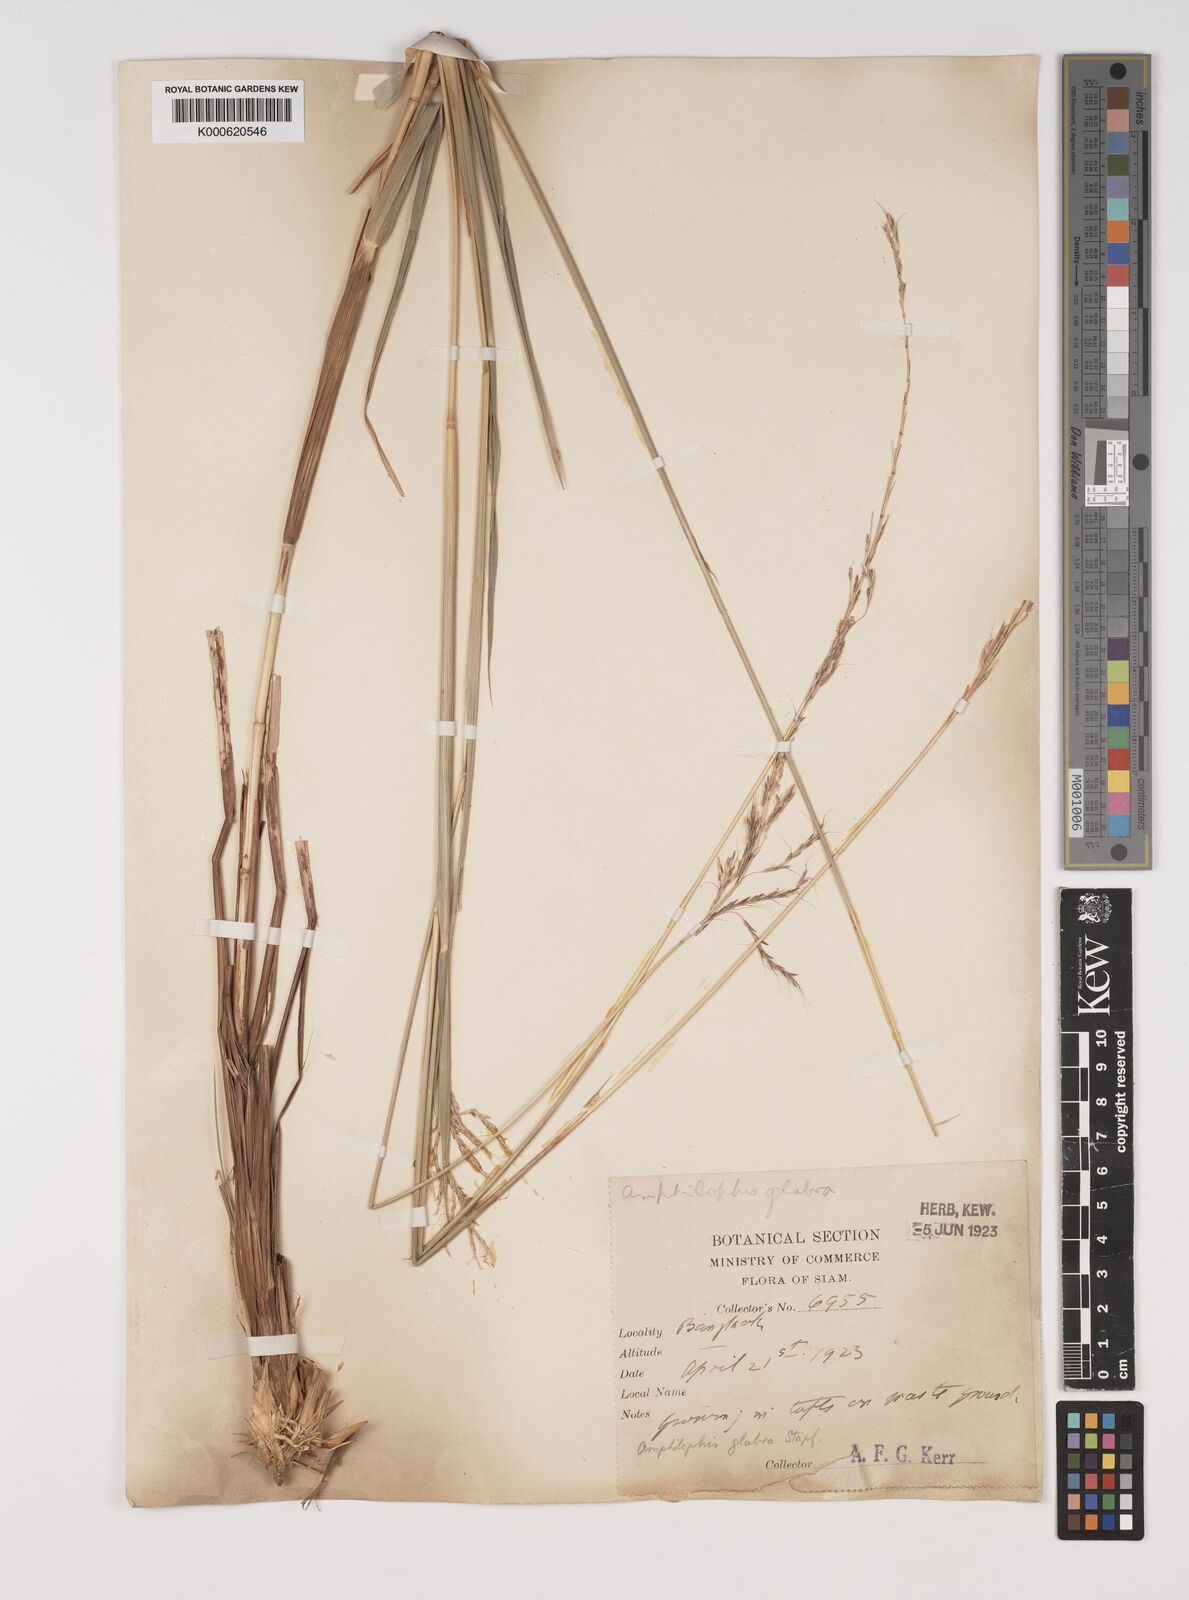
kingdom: Plantae
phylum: Tracheophyta
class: Liliopsida
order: Poales
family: Poaceae
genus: Bothriochloa
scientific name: Bothriochloa bladhii
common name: Caucasian bluestem
